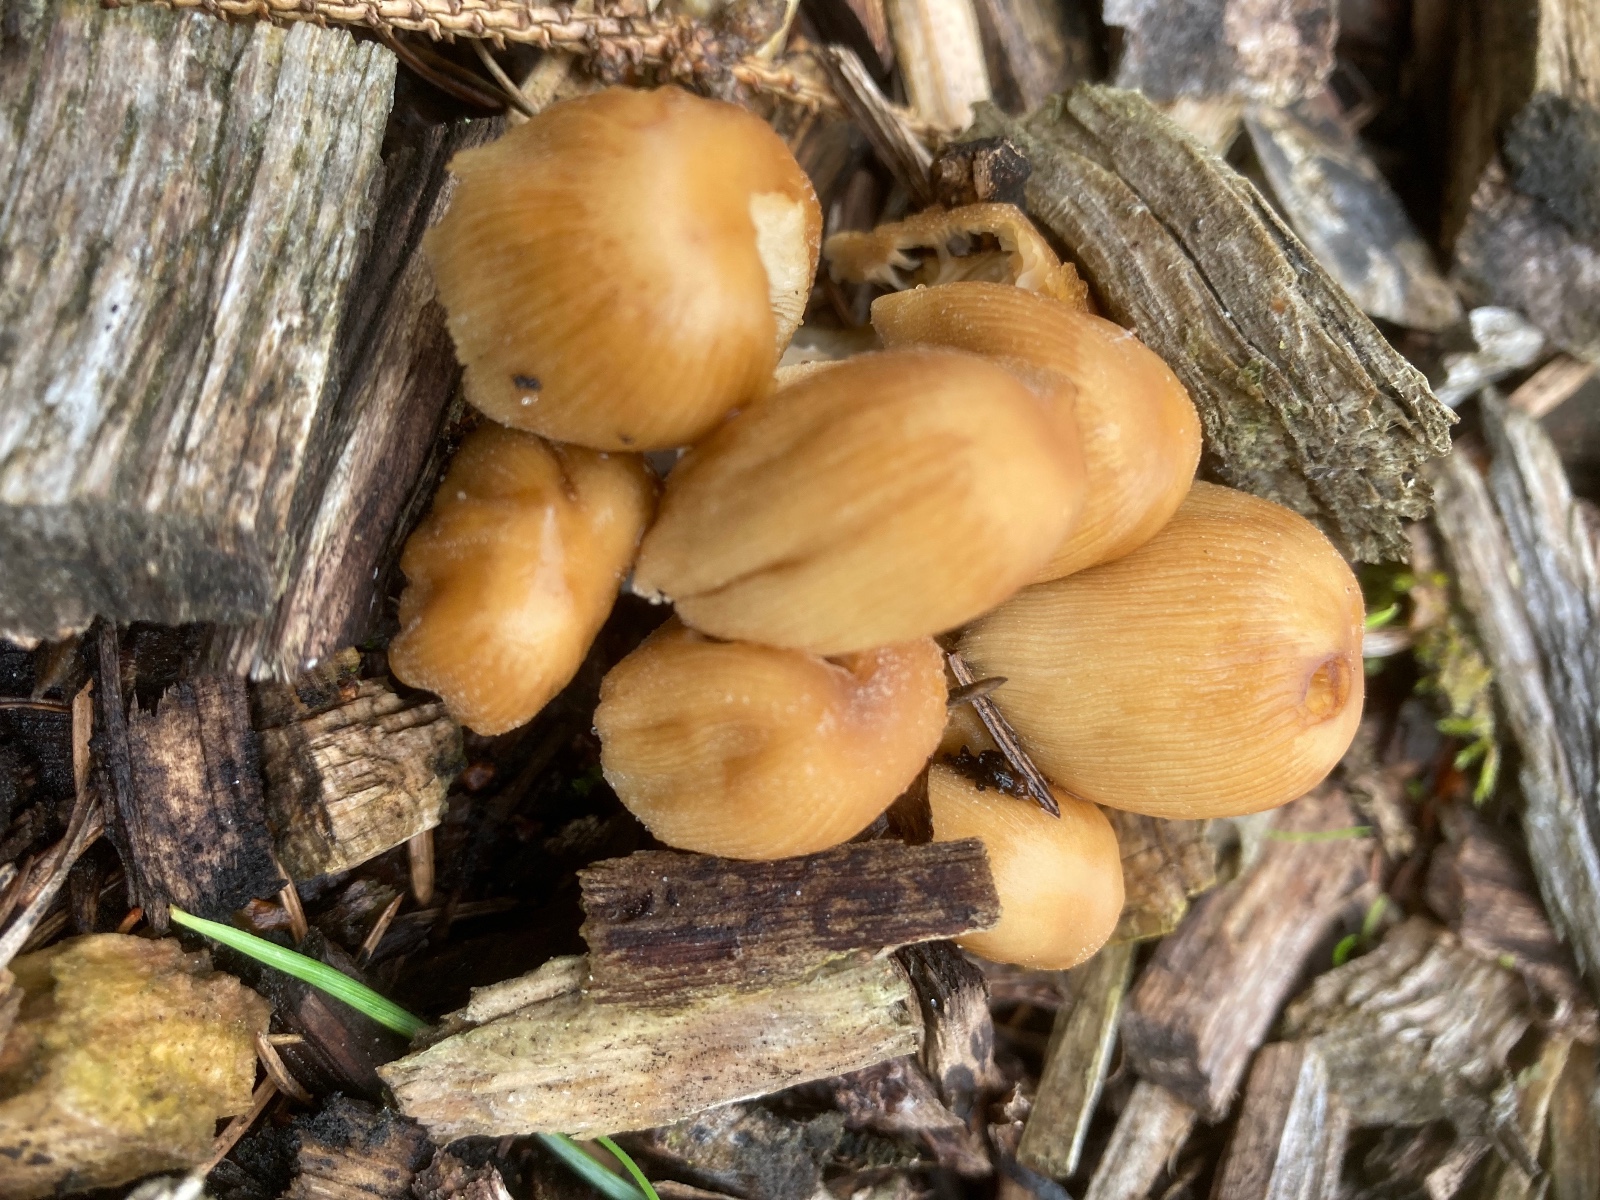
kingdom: Fungi
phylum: Basidiomycota
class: Agaricomycetes
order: Agaricales
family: Psathyrellaceae
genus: Coprinellus
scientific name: Coprinellus micaceus
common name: glimmer-blækhat
